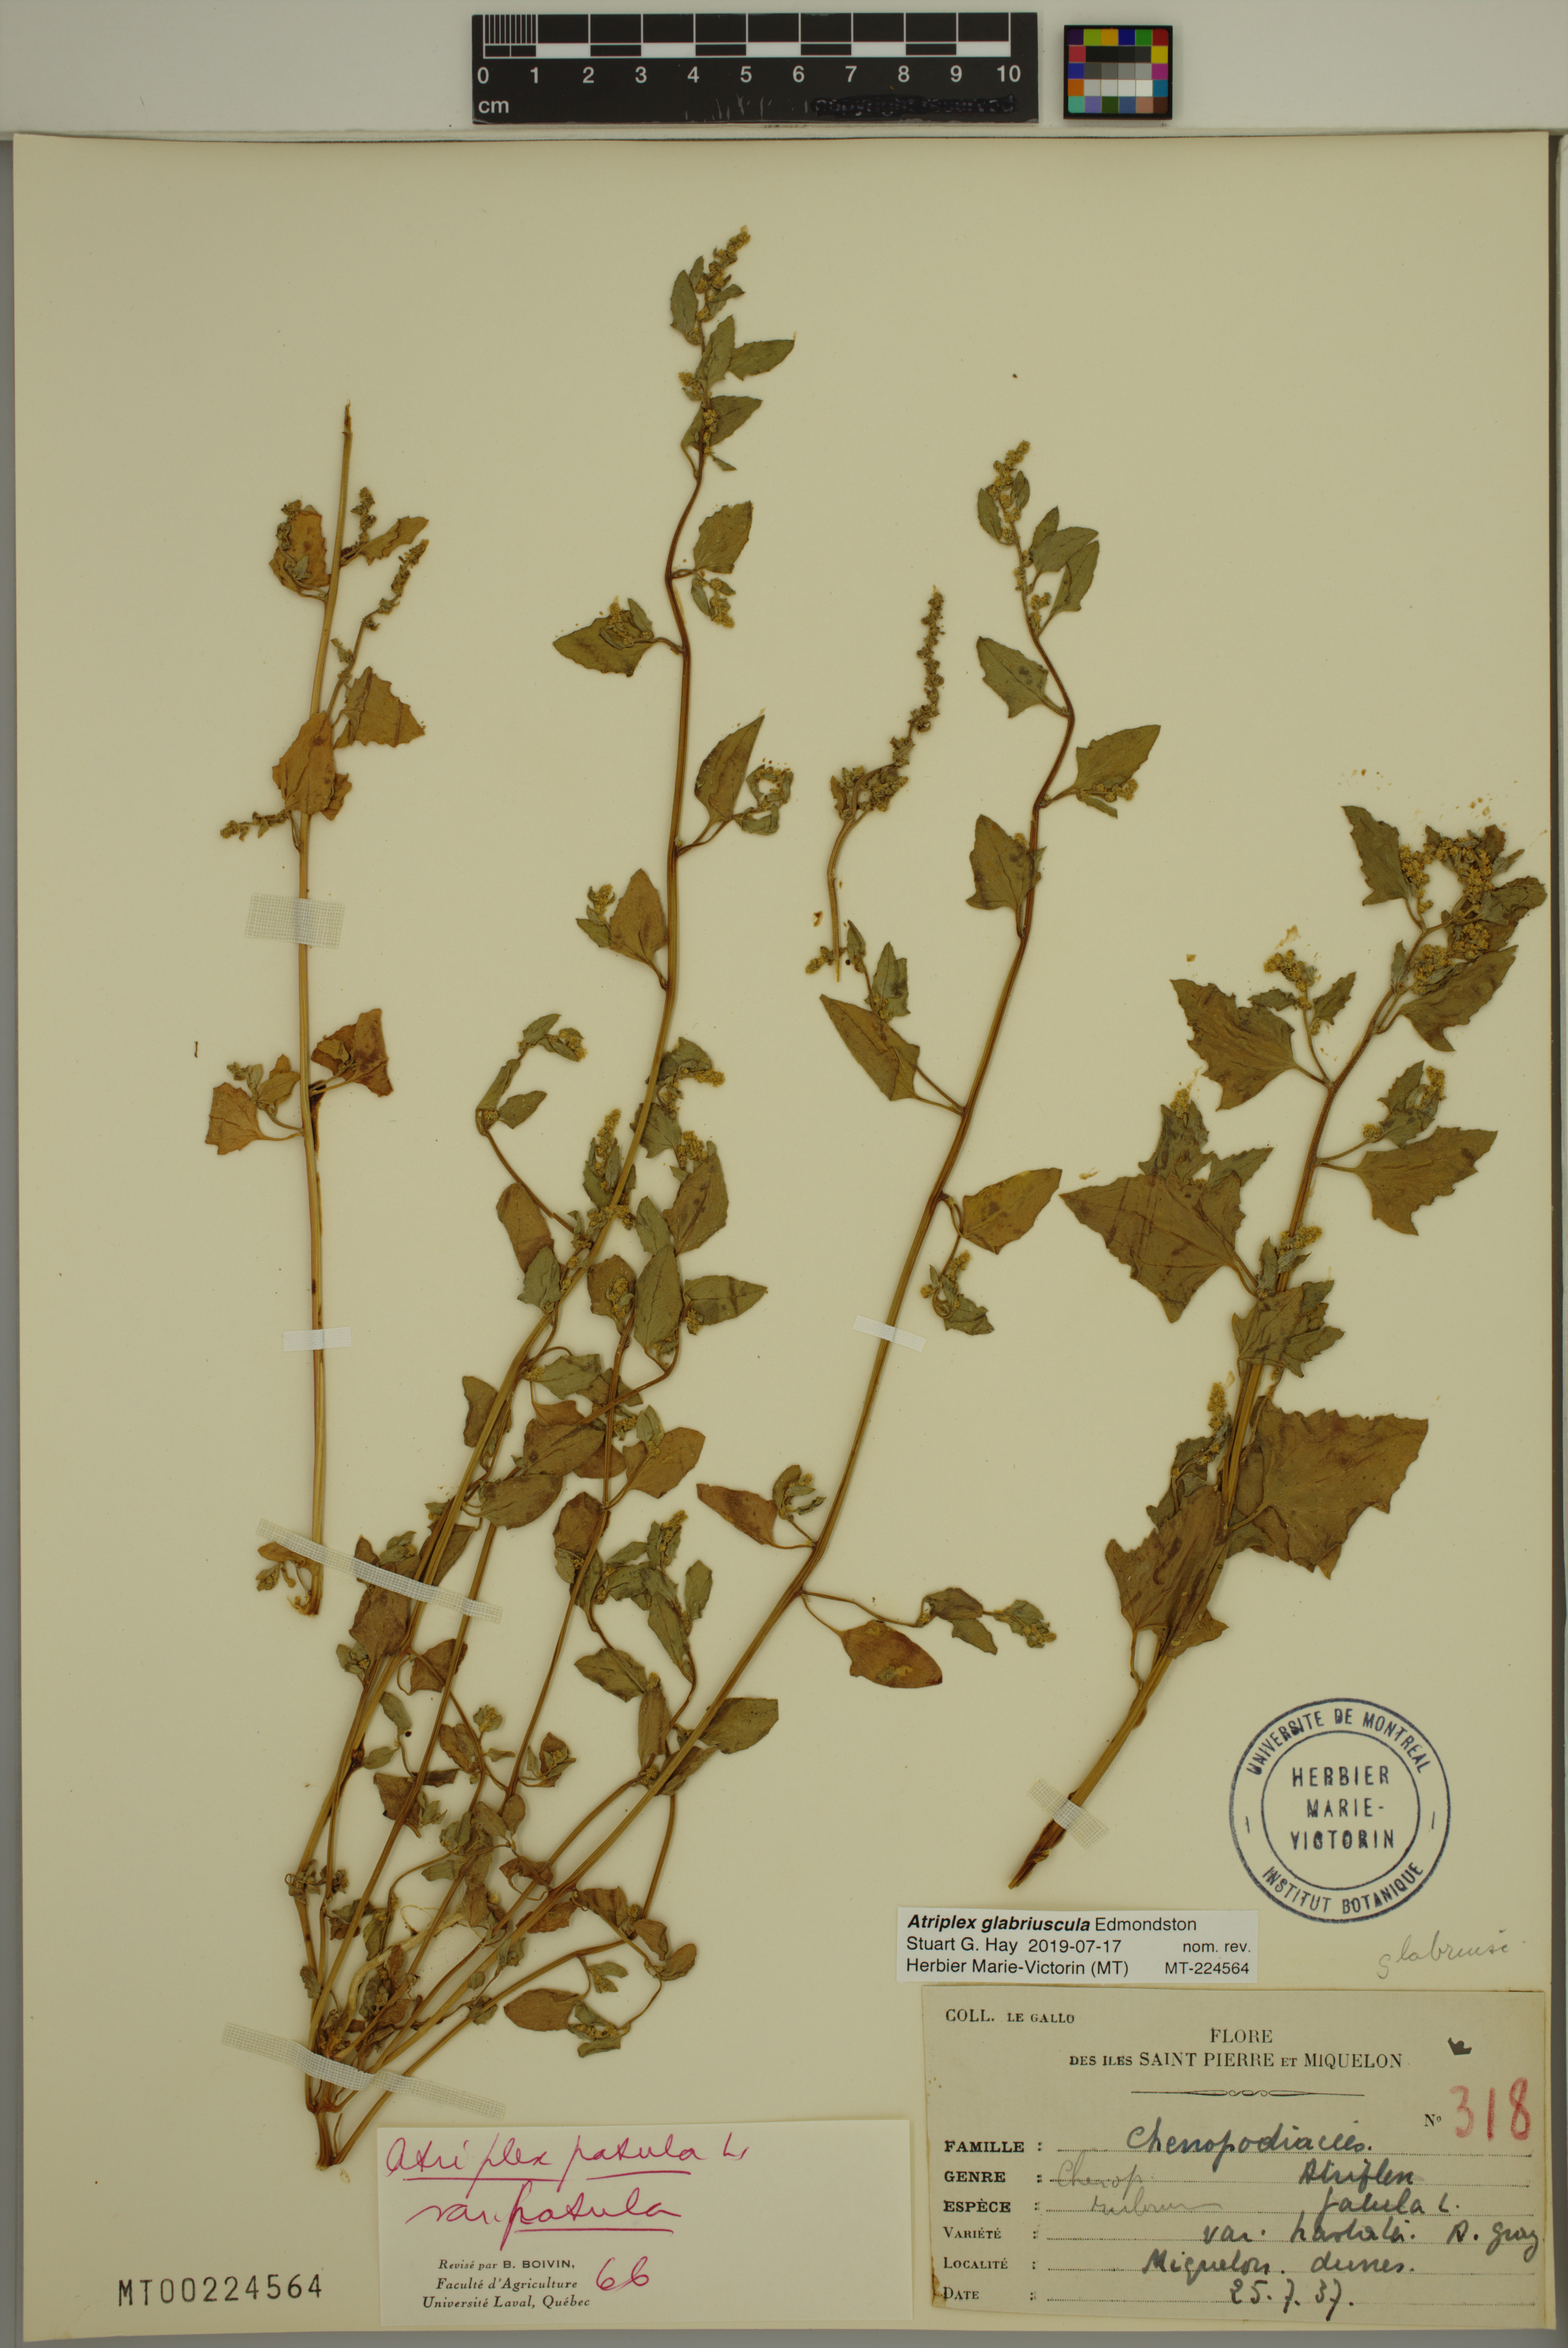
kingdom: Plantae
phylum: Tracheophyta
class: Magnoliopsida
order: Caryophyllales
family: Amaranthaceae
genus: Atriplex
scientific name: Atriplex glabriuscula
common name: Babington's orache
